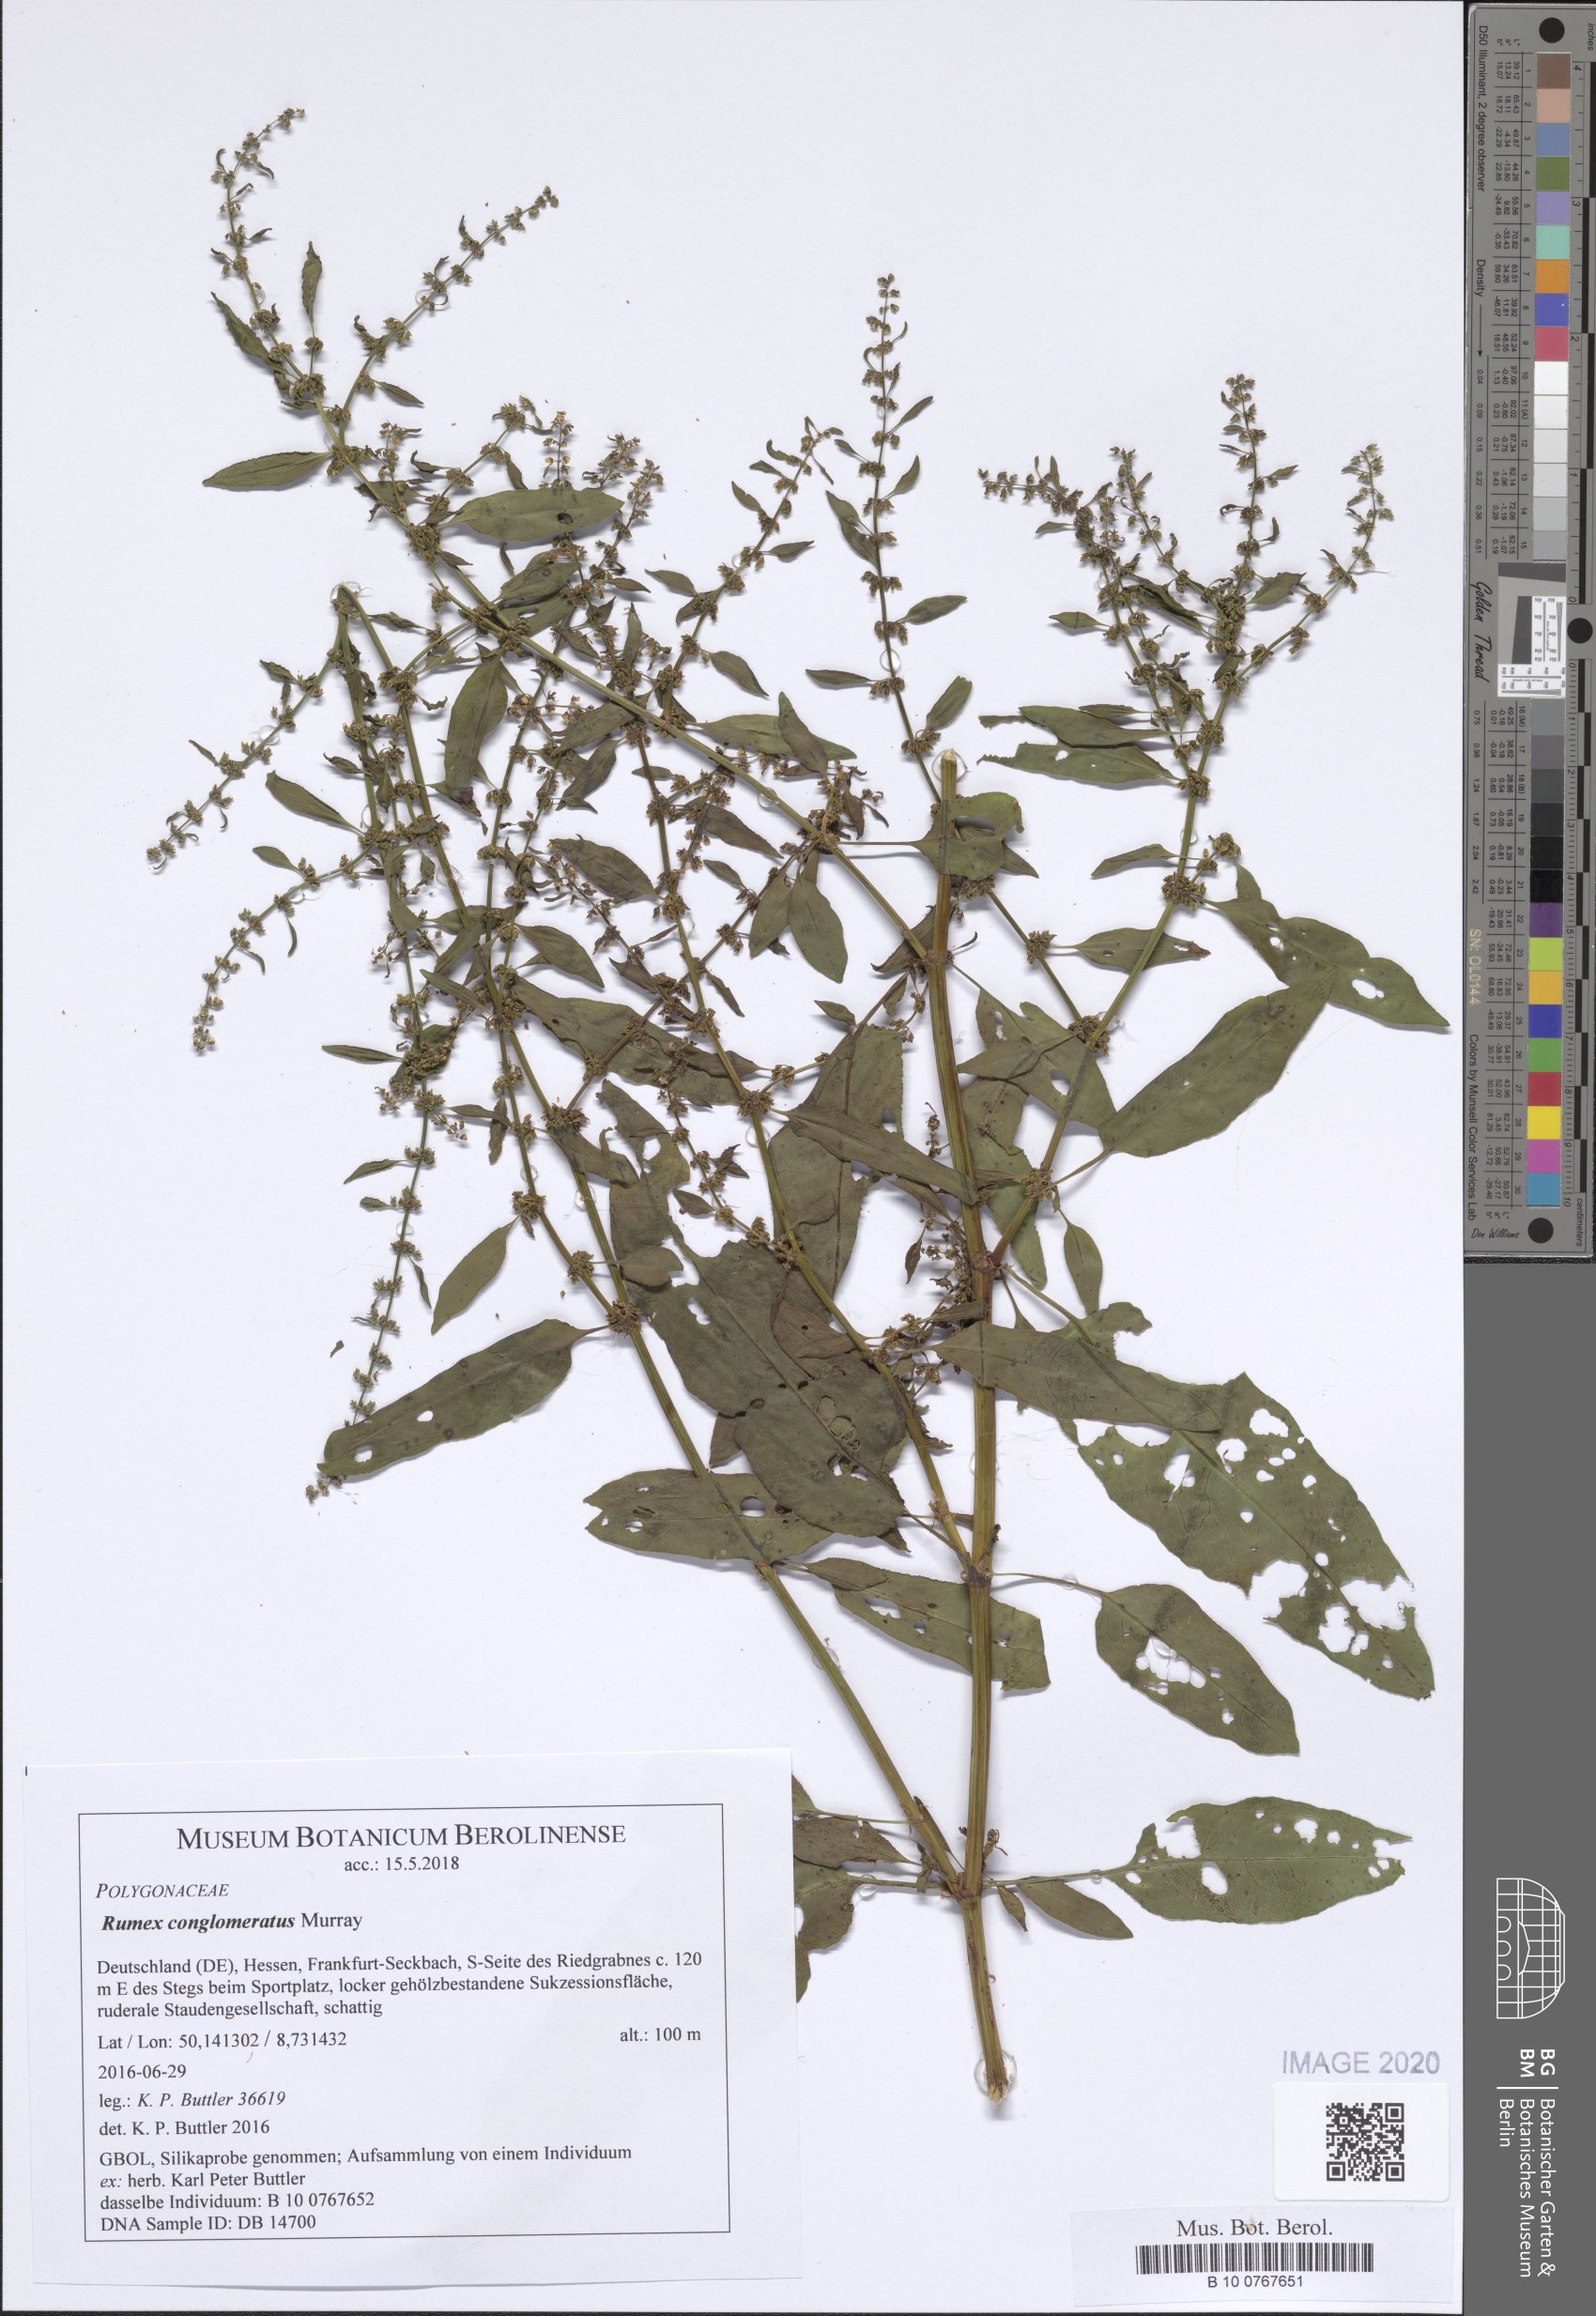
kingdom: Plantae
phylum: Tracheophyta
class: Magnoliopsida
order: Caryophyllales
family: Polygonaceae
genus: Rumex
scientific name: Rumex conglomeratus
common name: Clustered dock
